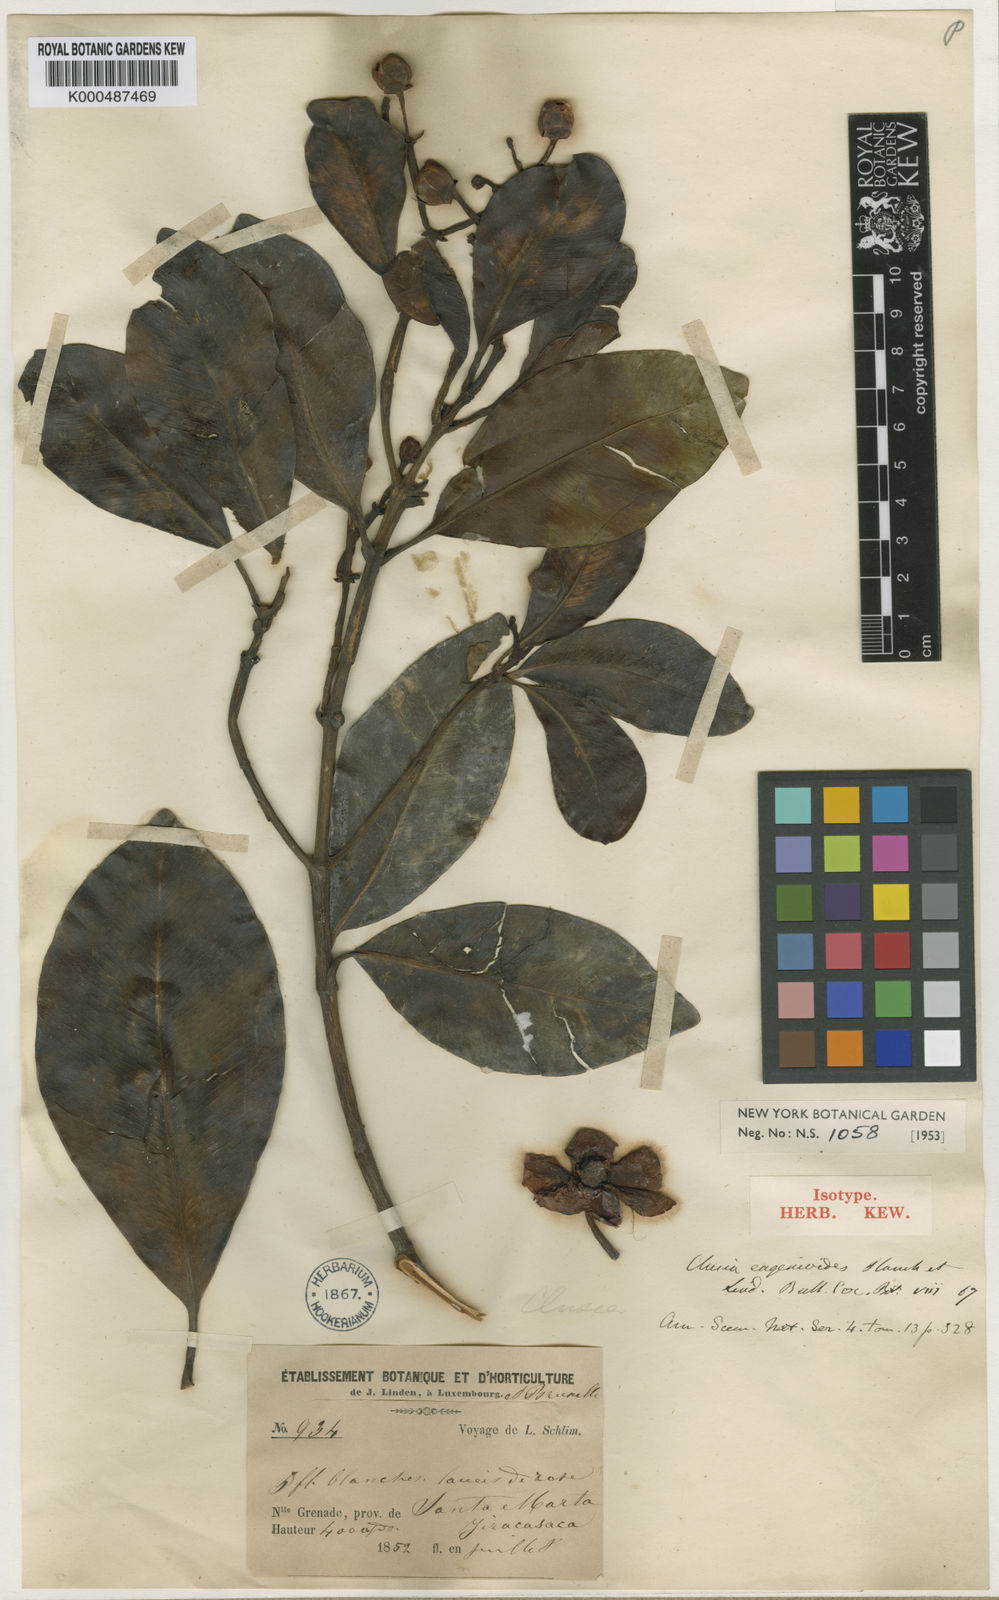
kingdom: Plantae
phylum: Tracheophyta
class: Magnoliopsida
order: Malpighiales
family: Clusiaceae
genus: Clusia
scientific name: Clusia eugenioides
